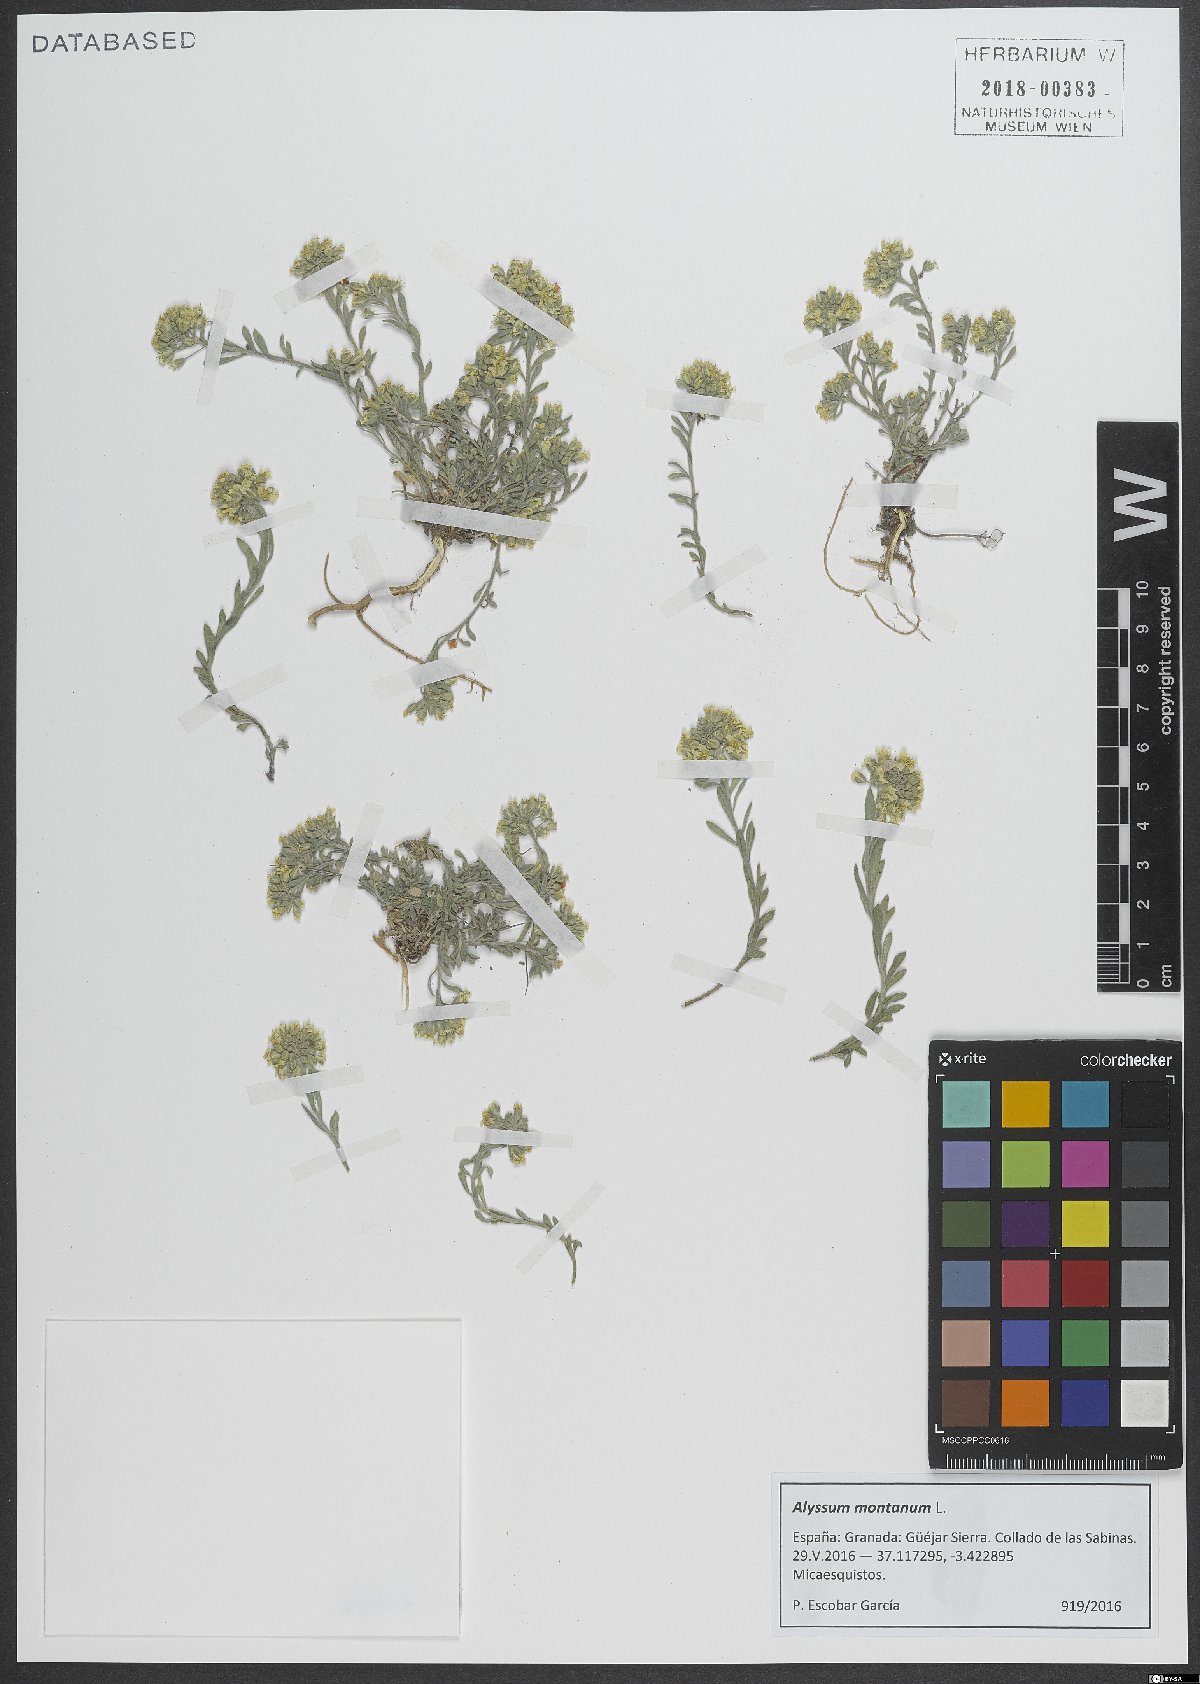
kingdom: Plantae
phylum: Tracheophyta
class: Magnoliopsida
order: Brassicales
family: Brassicaceae
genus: Alyssum
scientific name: Alyssum montanum
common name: Mountain alison
